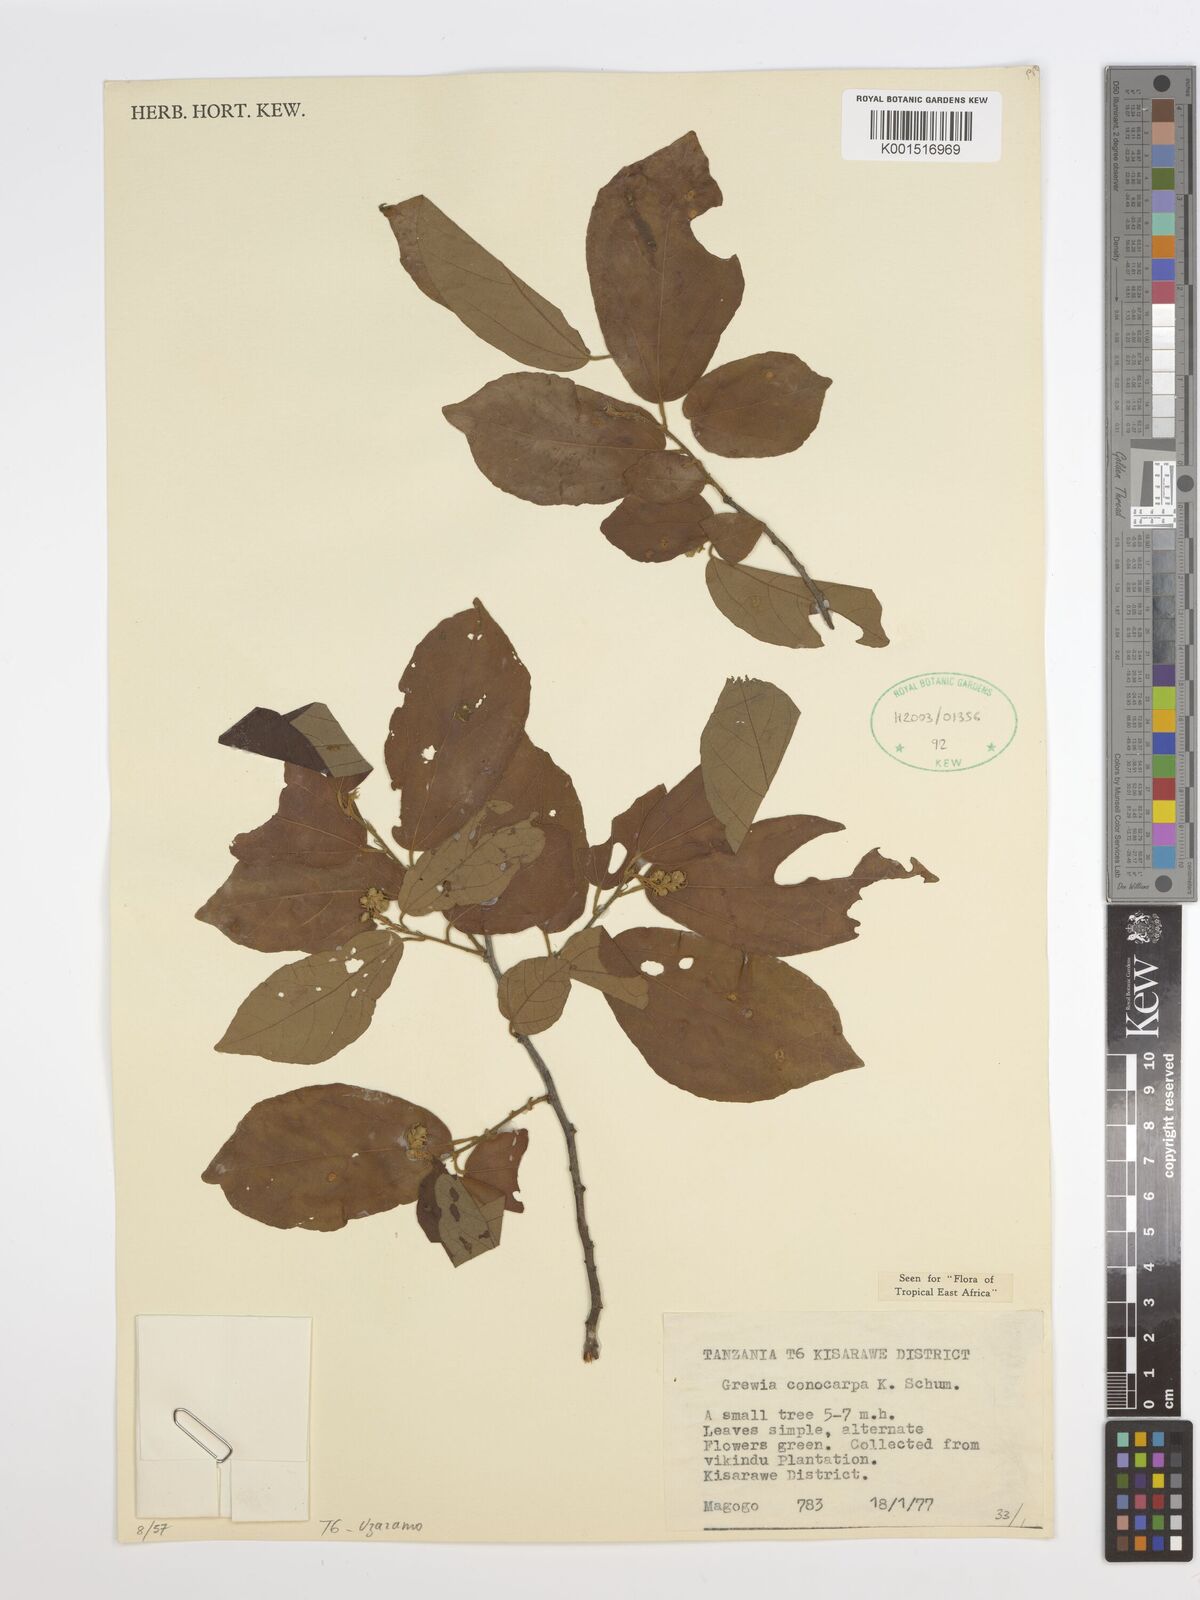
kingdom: Plantae
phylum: Tracheophyta
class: Magnoliopsida
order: Malvales
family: Malvaceae
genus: Microcos
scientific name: Microcos conocarpa
